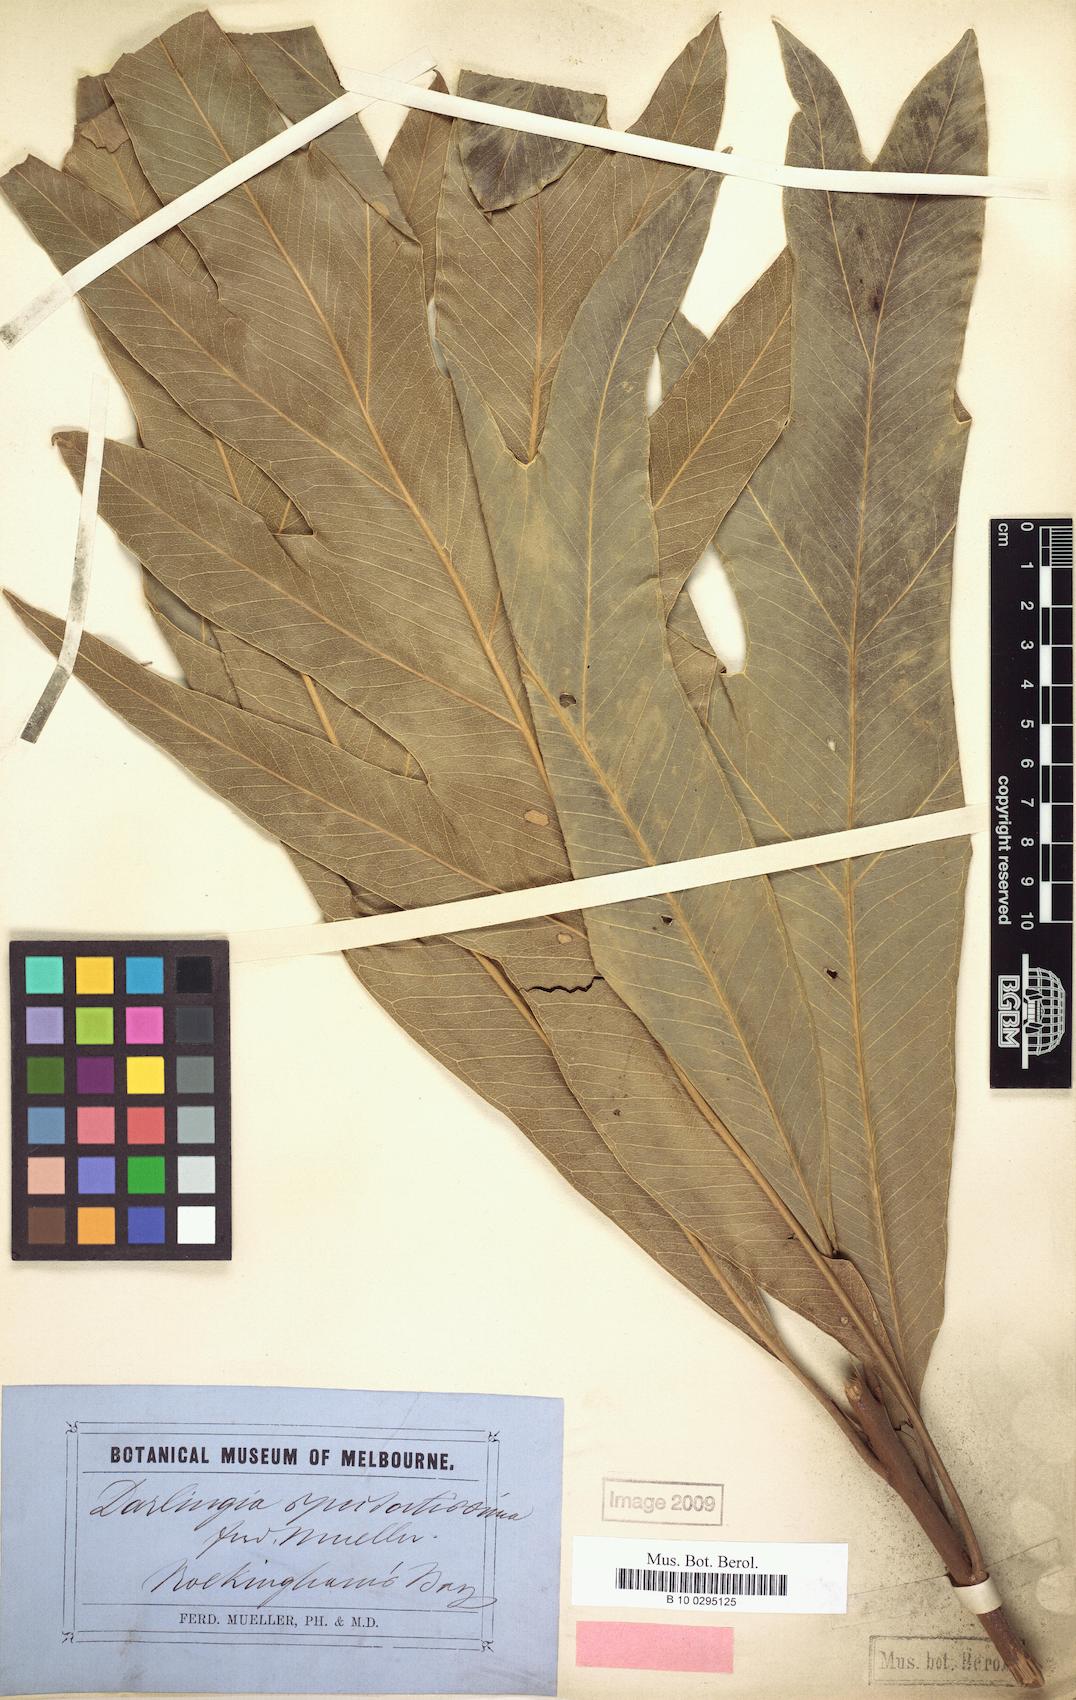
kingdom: Plantae
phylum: Tracheophyta
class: Magnoliopsida
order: Proteales
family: Proteaceae
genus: Darlingia
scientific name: Darlingia darlingiana
